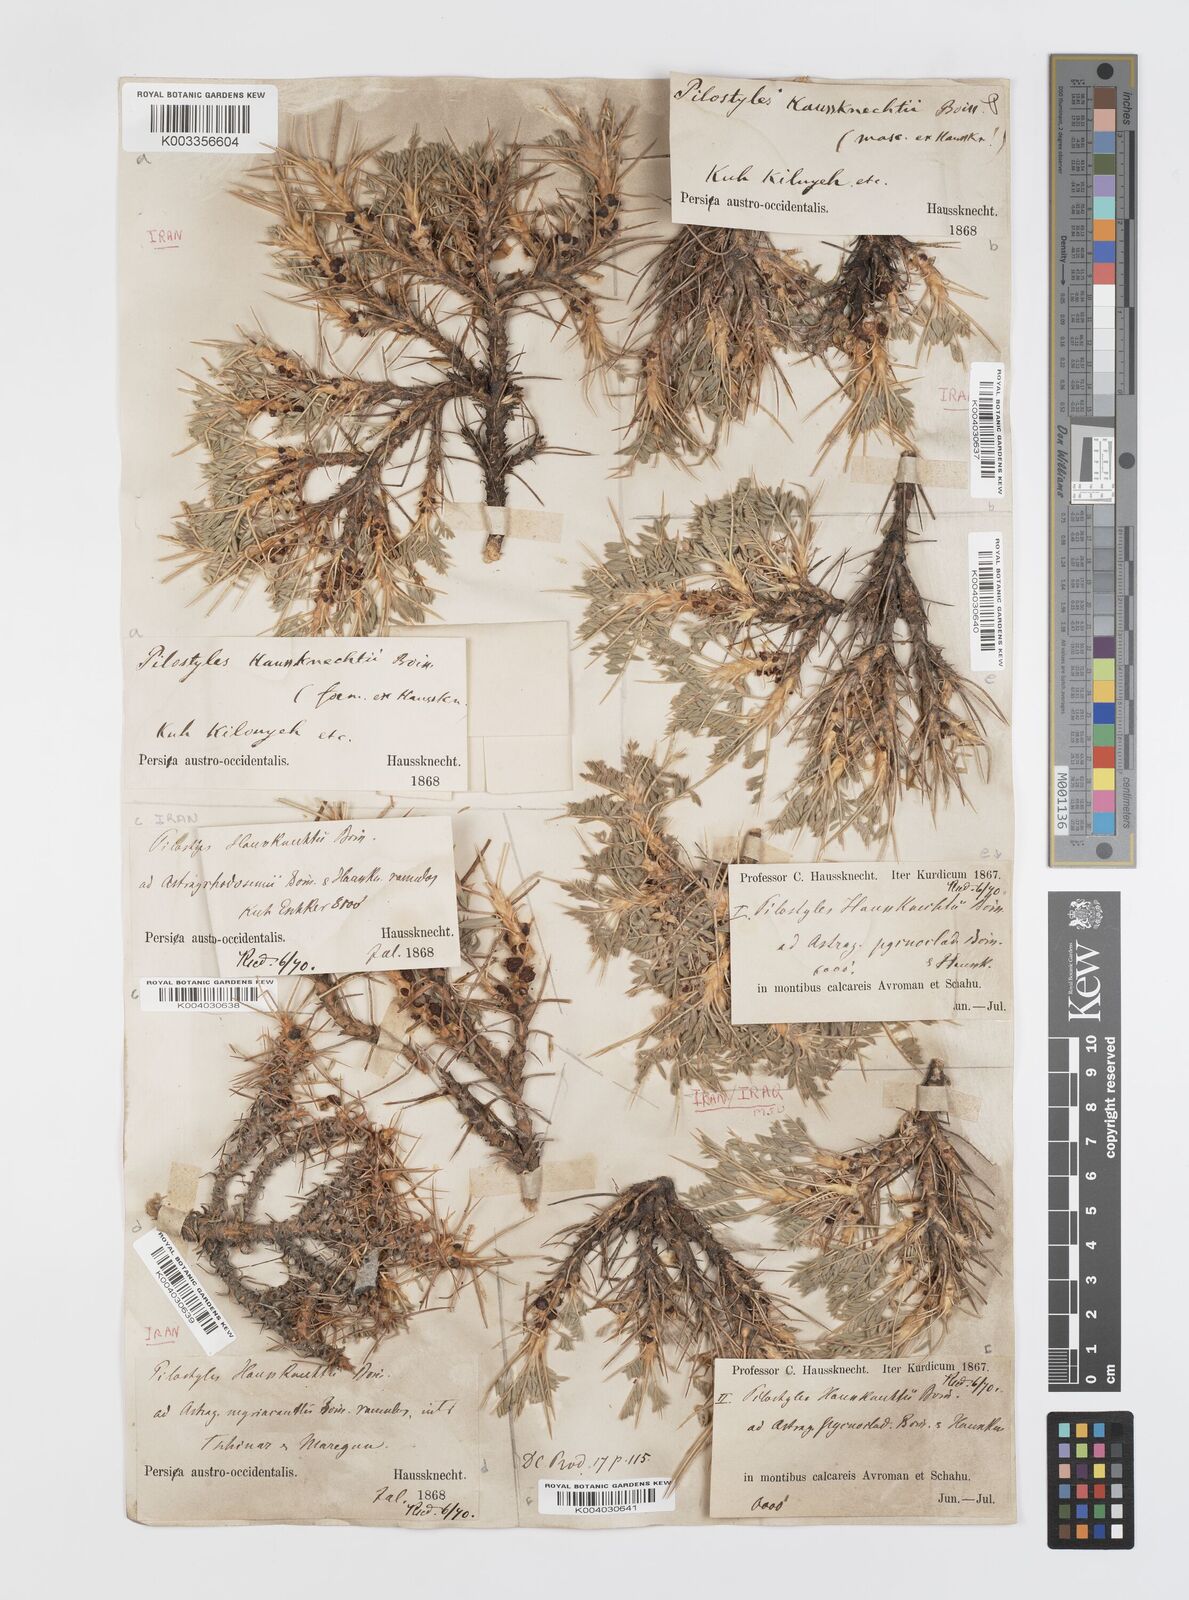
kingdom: Plantae
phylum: Tracheophyta
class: Magnoliopsida
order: Cucurbitales
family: Apodanthaceae
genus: Pilostyles
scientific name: Pilostyles haussknechtii
